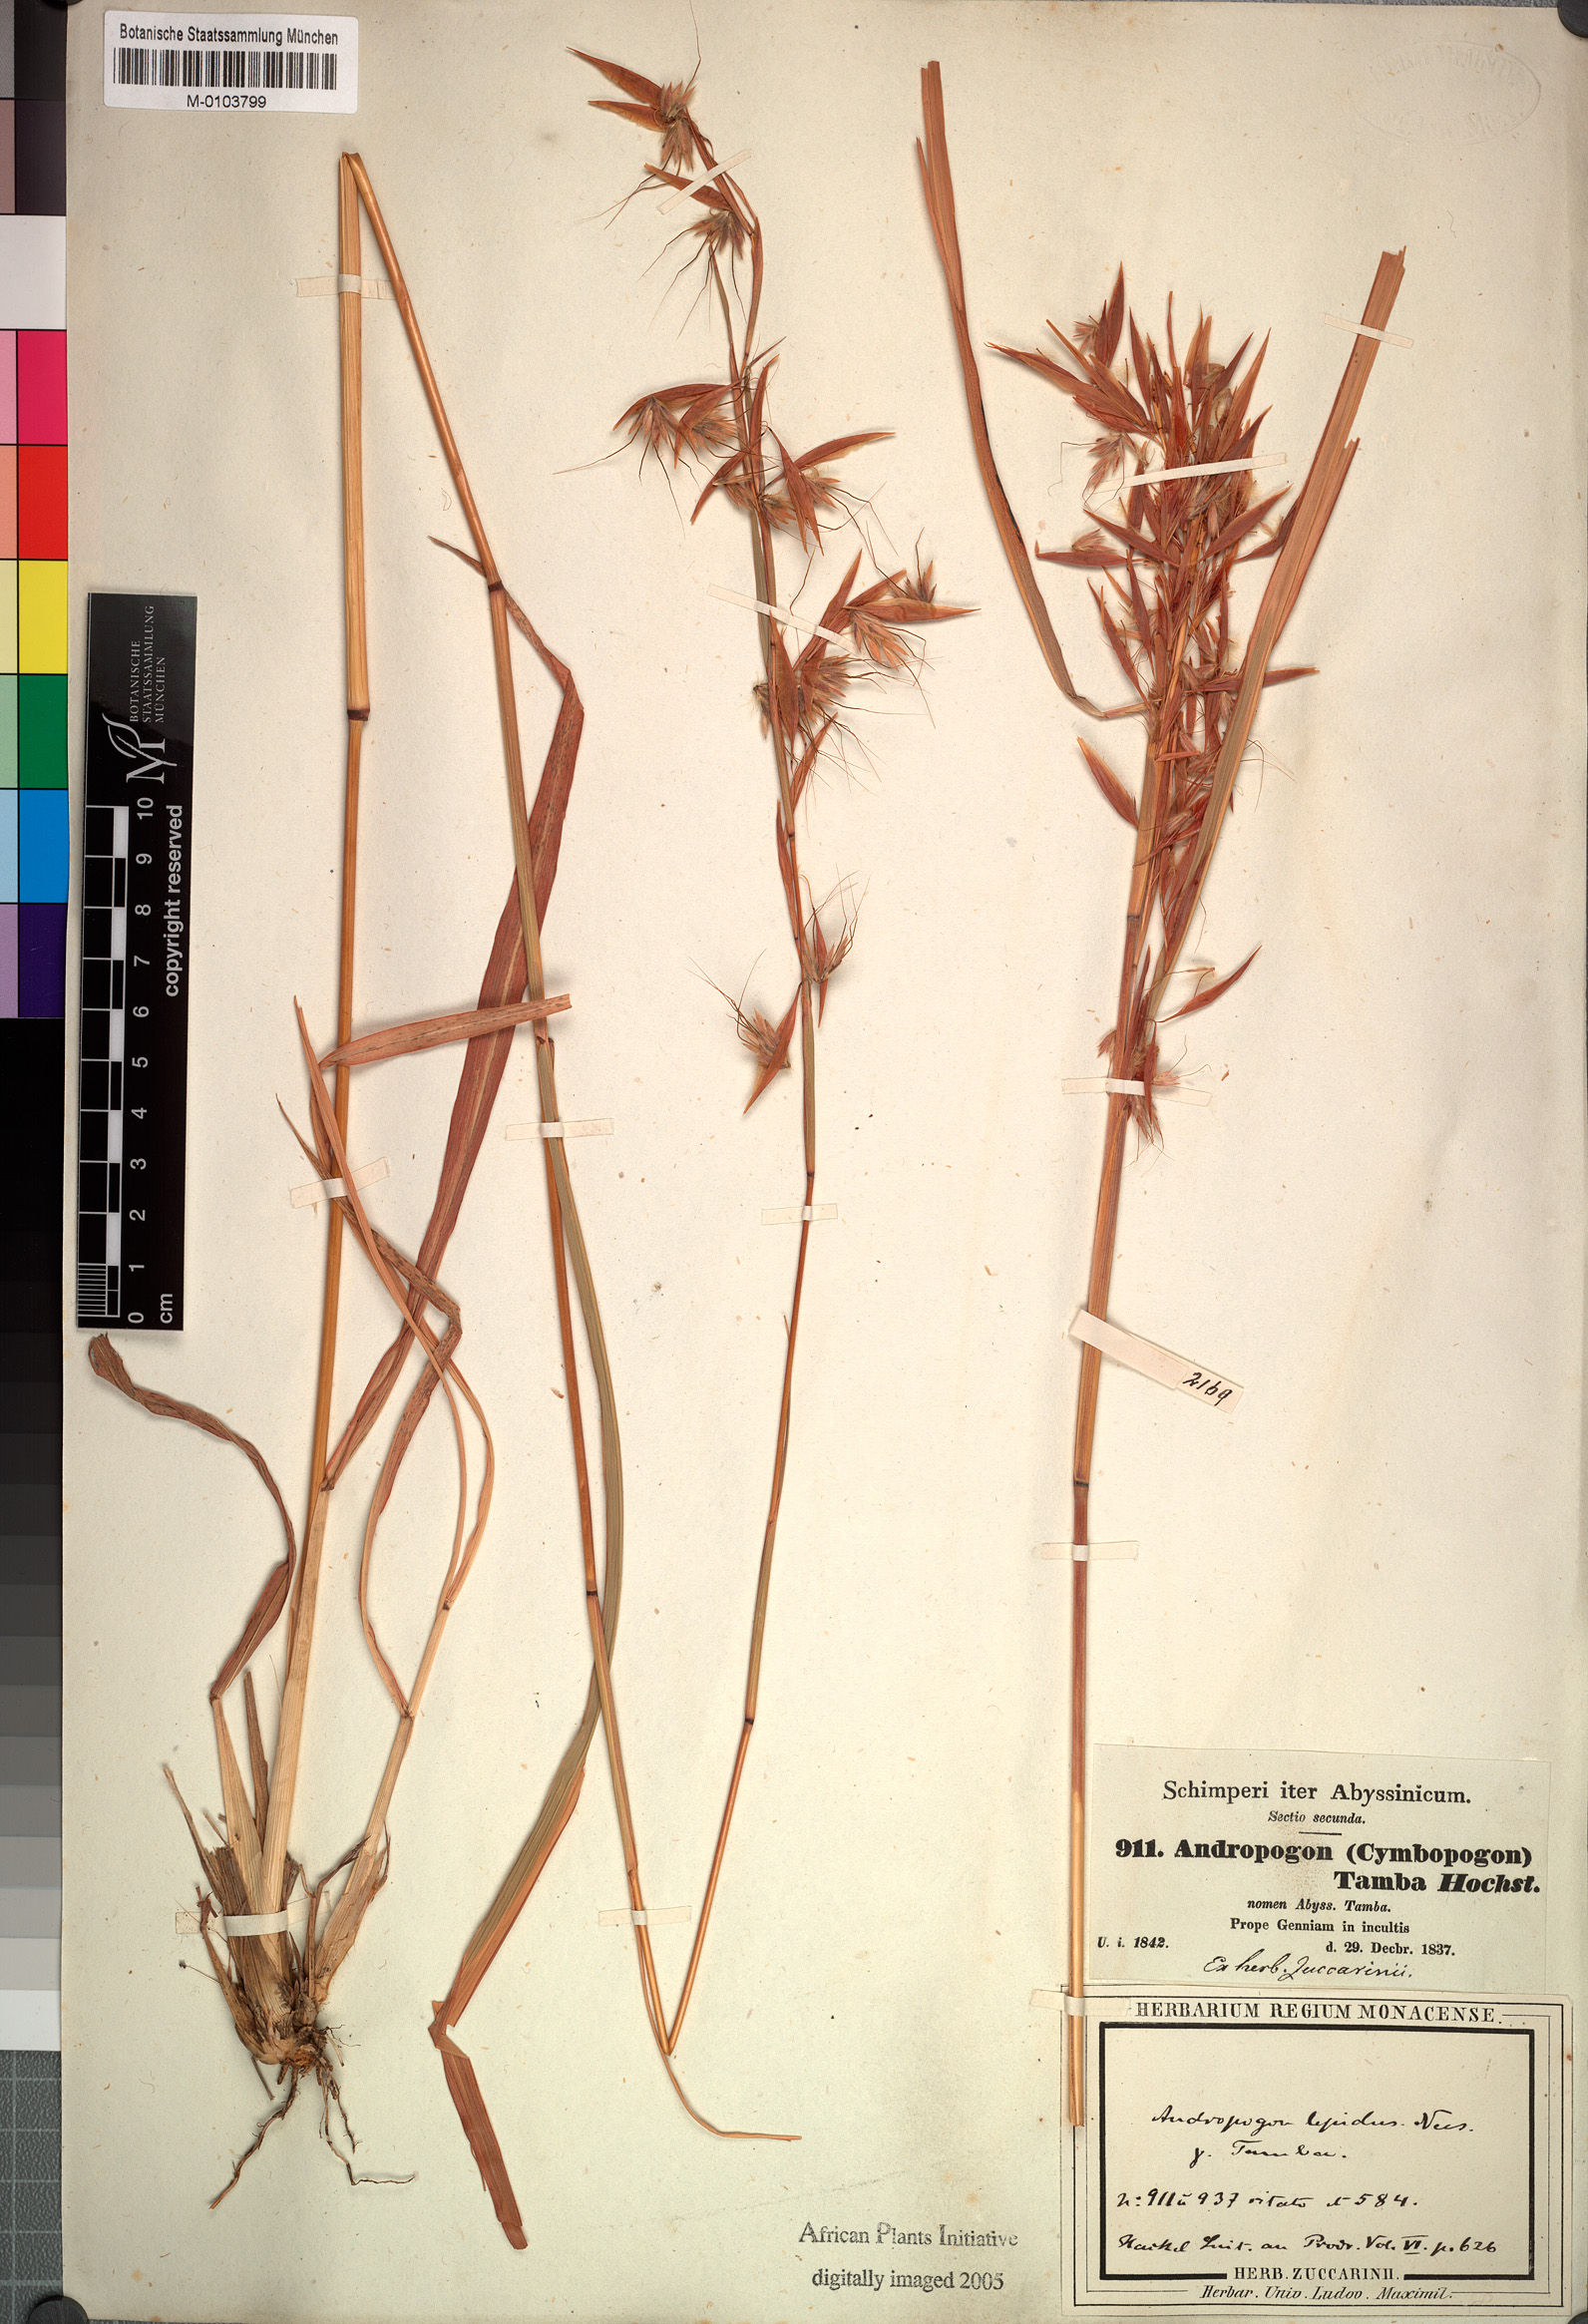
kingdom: Plantae
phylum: Tracheophyta
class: Liliopsida
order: Poales
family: Poaceae
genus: Hyparrhenia
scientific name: Hyparrhenia tamba
